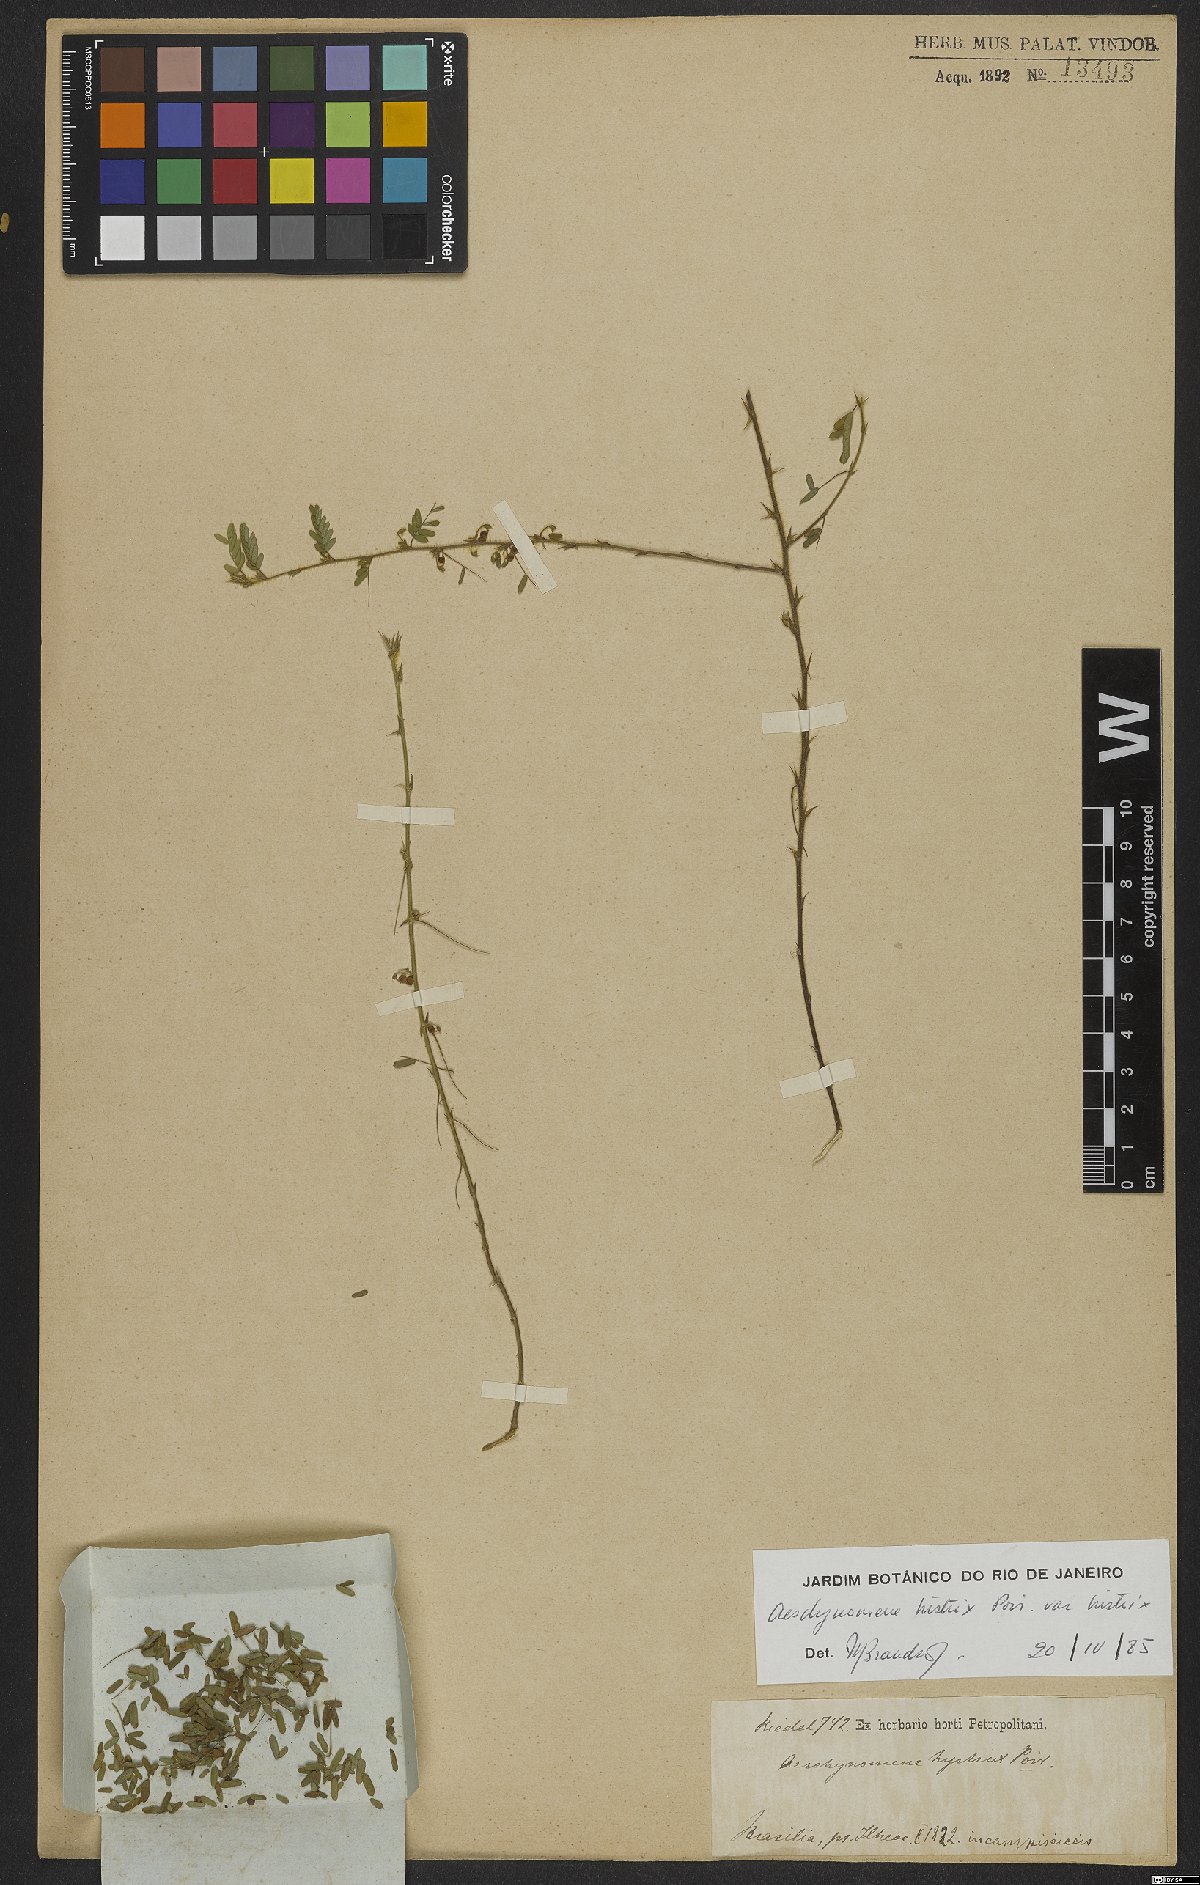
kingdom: Plantae
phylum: Tracheophyta
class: Magnoliopsida
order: Fabales
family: Fabaceae
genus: Ctenodon
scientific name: Ctenodon histrix
